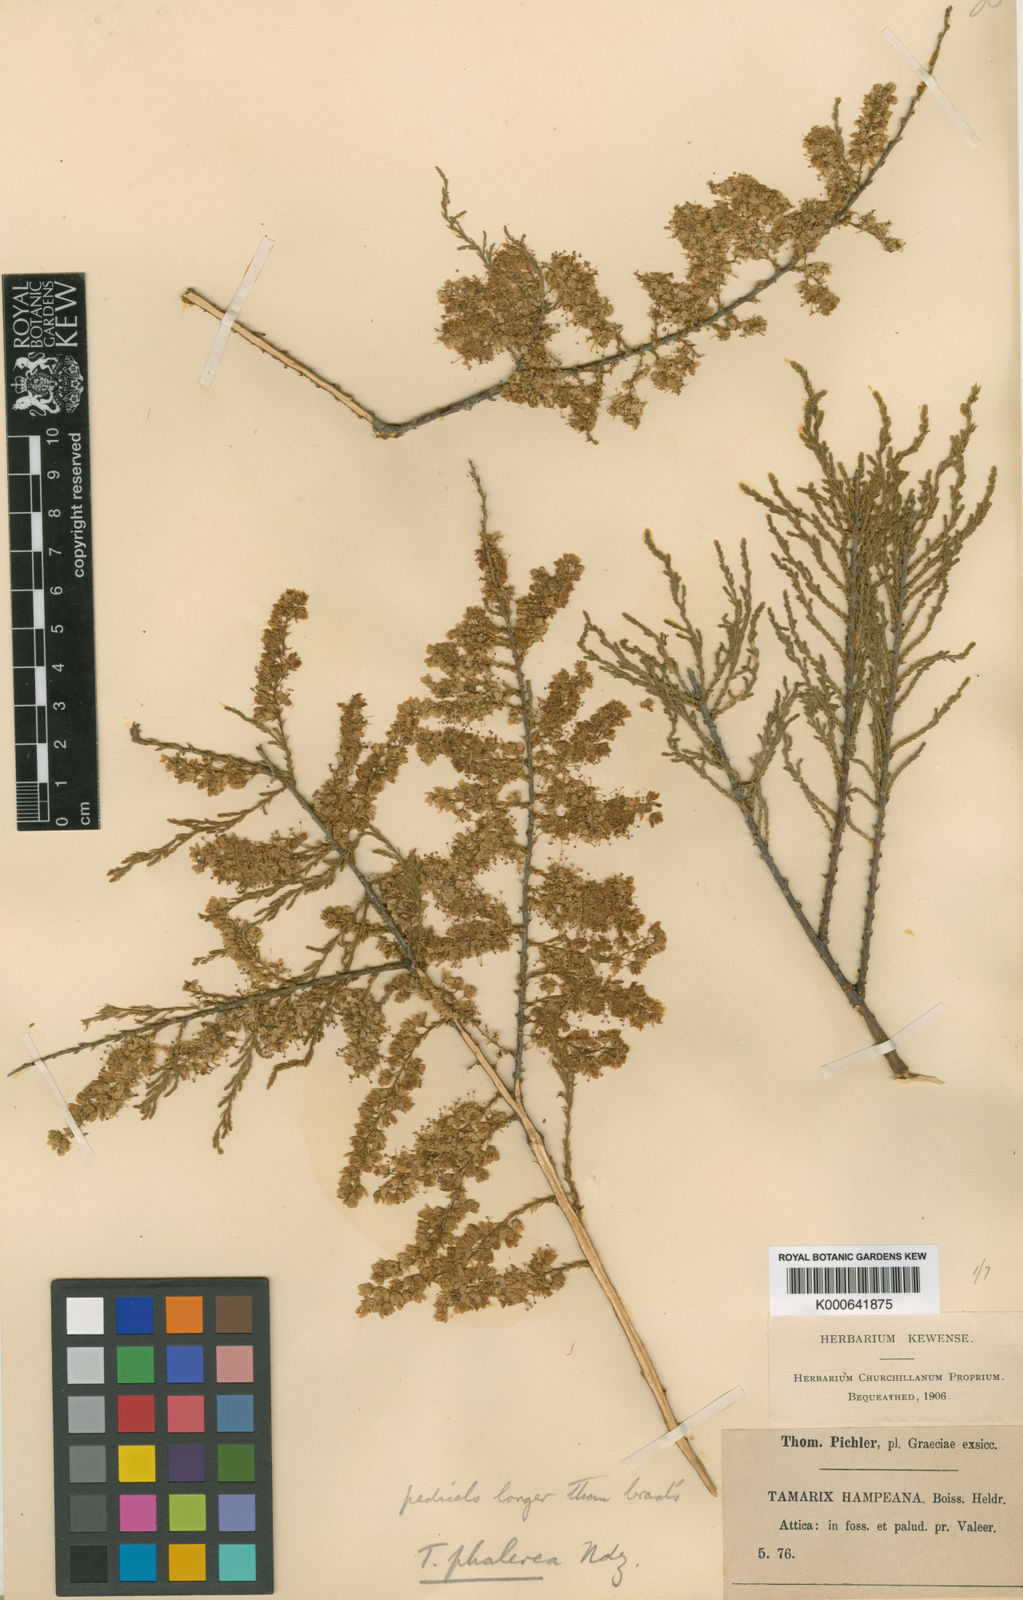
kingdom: Plantae
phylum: Tracheophyta
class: Magnoliopsida
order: Caryophyllales
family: Tamaricaceae
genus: Tamarix
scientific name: Tamarix hampeana
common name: Hampe’s tamarisk
